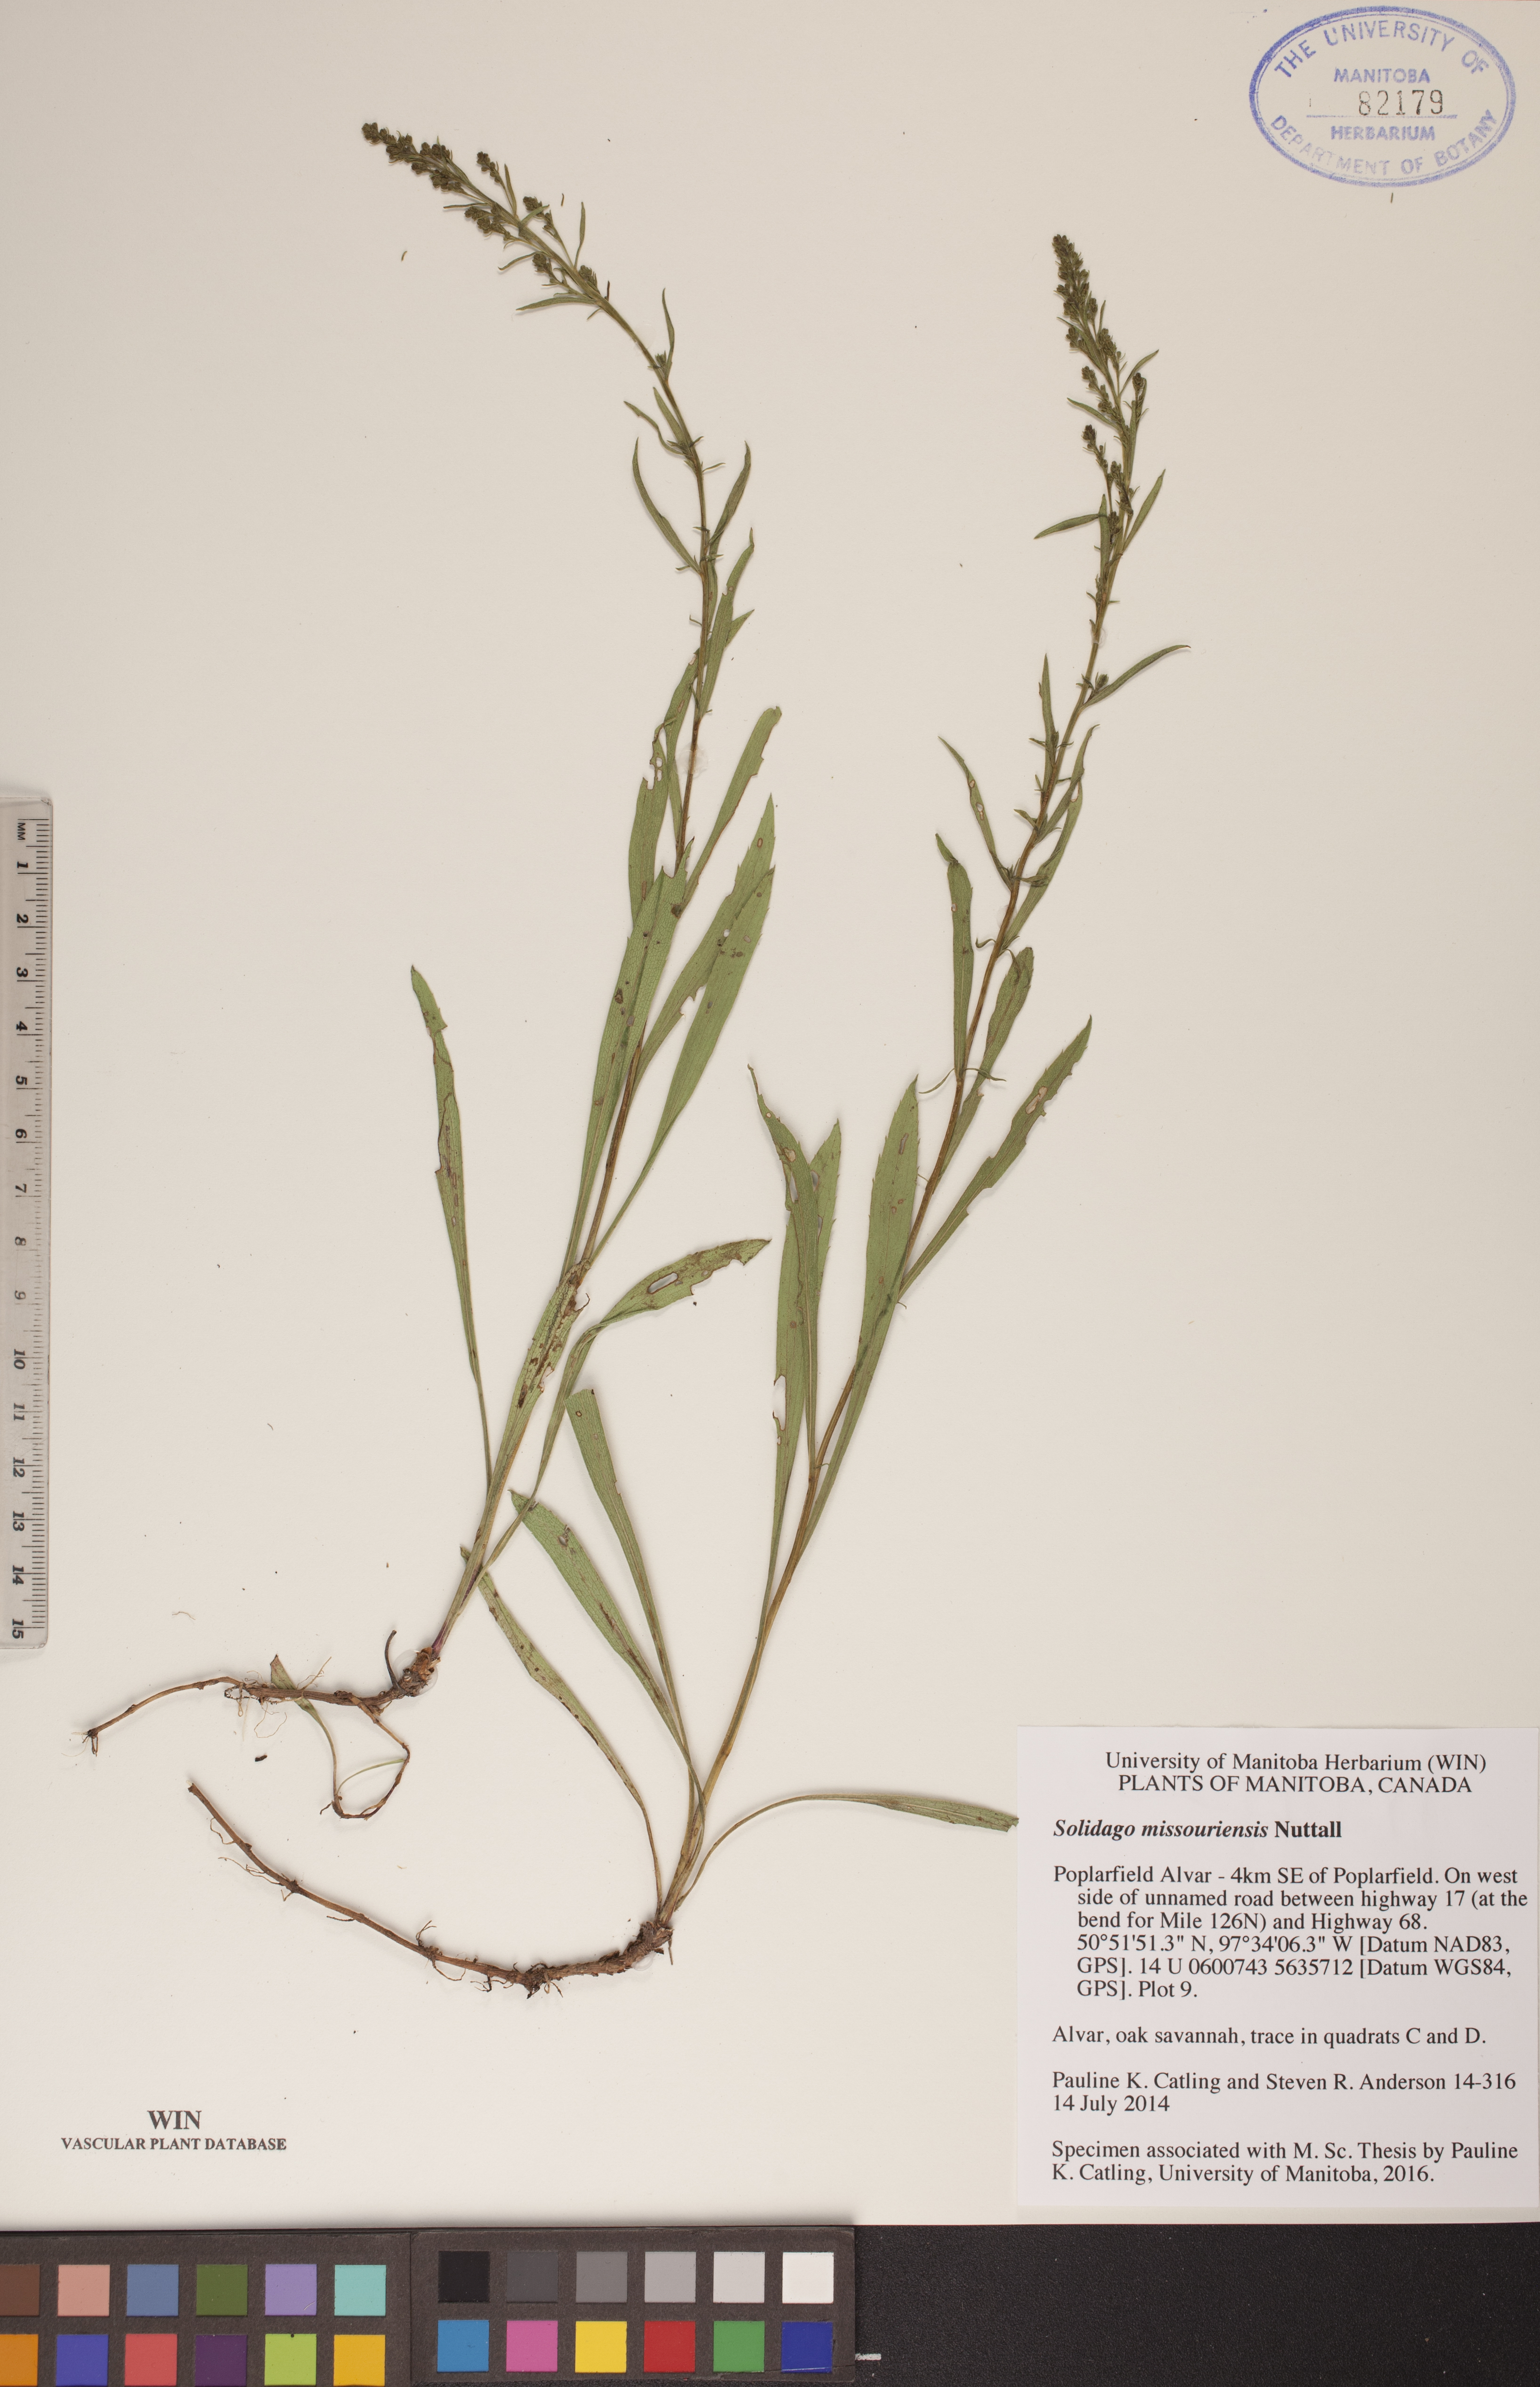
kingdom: Plantae
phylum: Tracheophyta
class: Magnoliopsida
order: Asterales
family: Asteraceae
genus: Solidago
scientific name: Solidago missouriensis
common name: Prairie goldenrod
